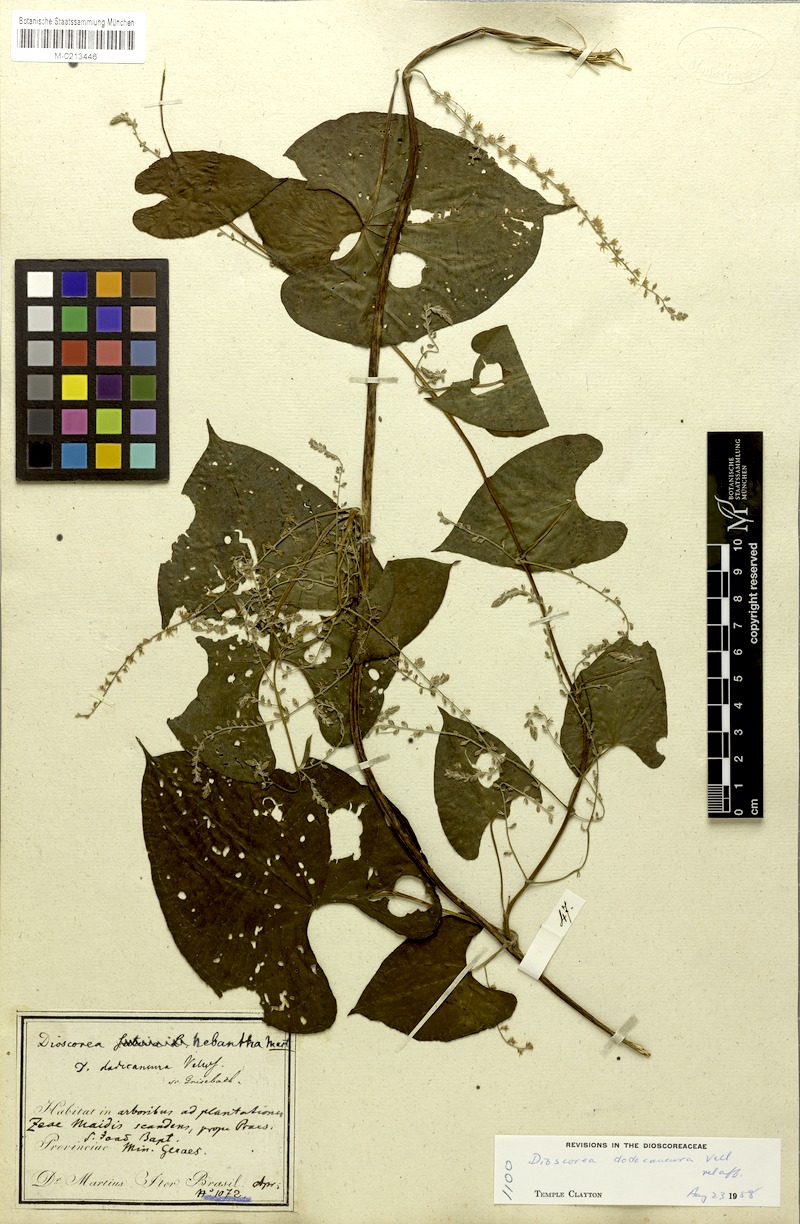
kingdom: Plantae
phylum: Tracheophyta
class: Liliopsida
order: Dioscoreales
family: Dioscoreaceae
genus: Dioscorea
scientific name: Dioscorea dodecaneura
